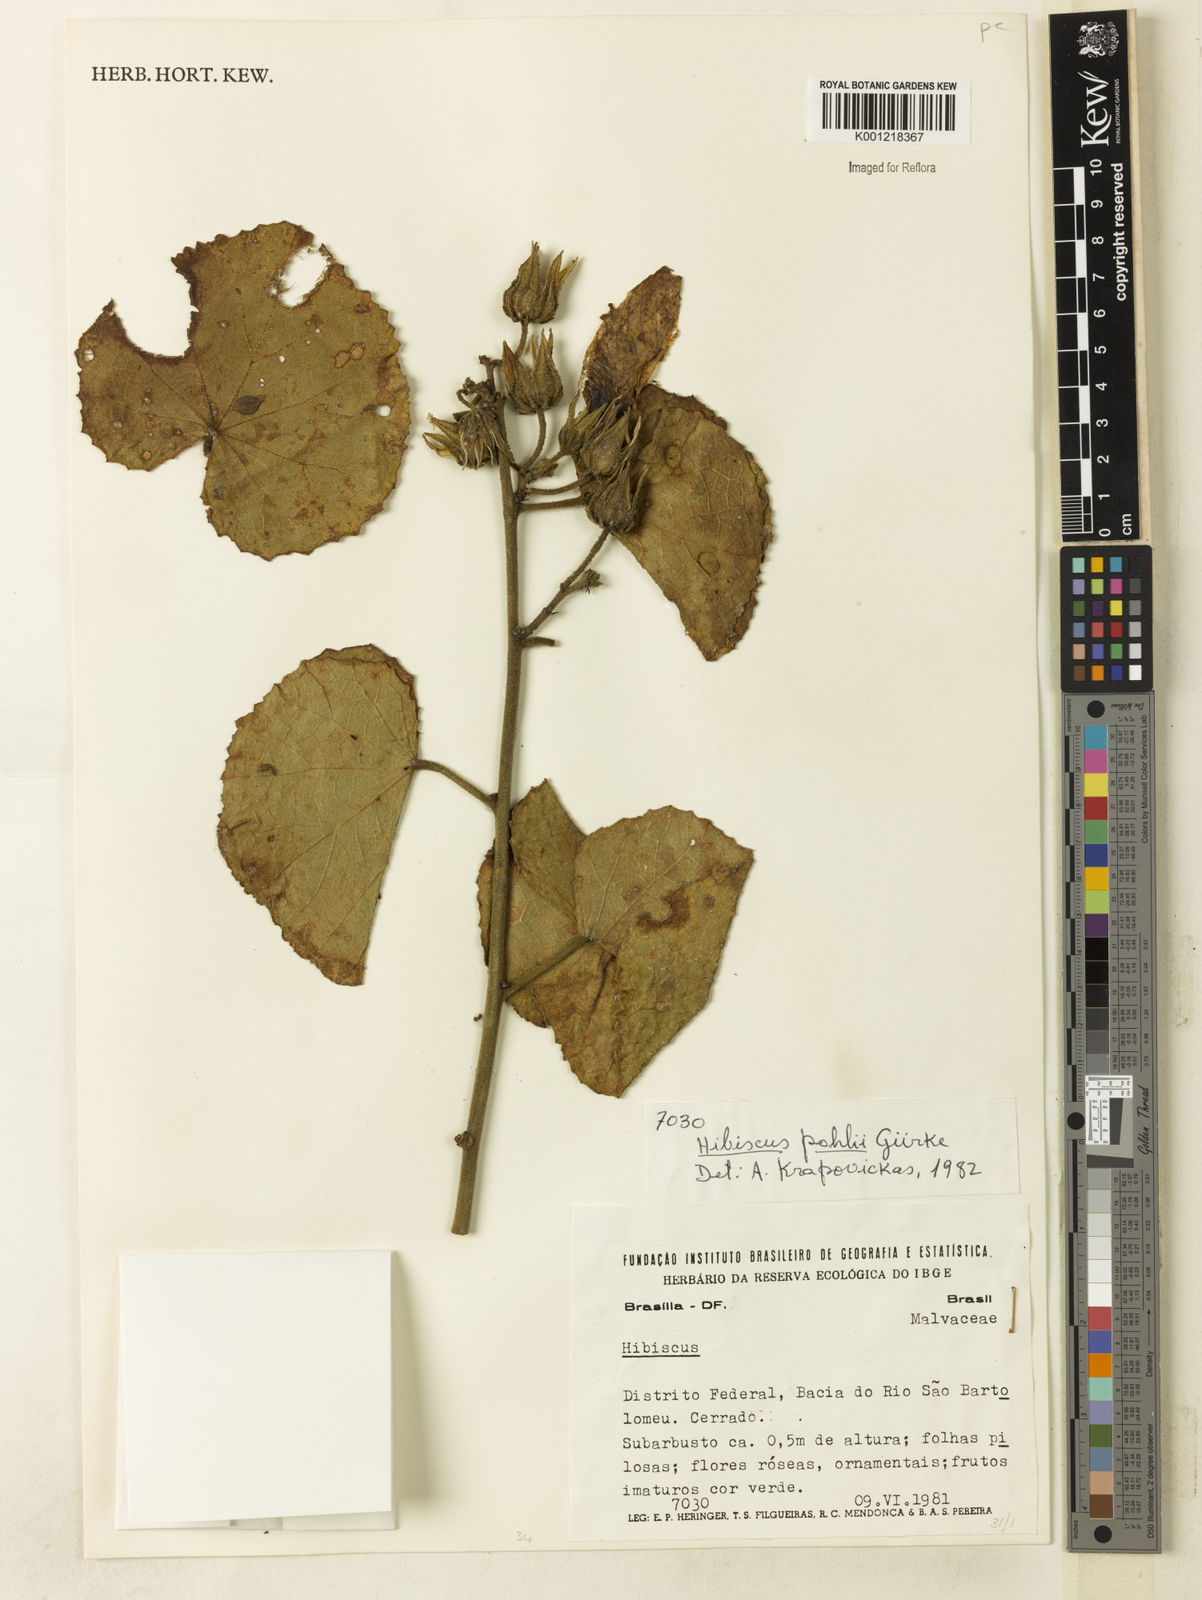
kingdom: Plantae
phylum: Tracheophyta
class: Magnoliopsida
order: Malvales
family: Malvaceae
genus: Hibiscus
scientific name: Hibiscus
